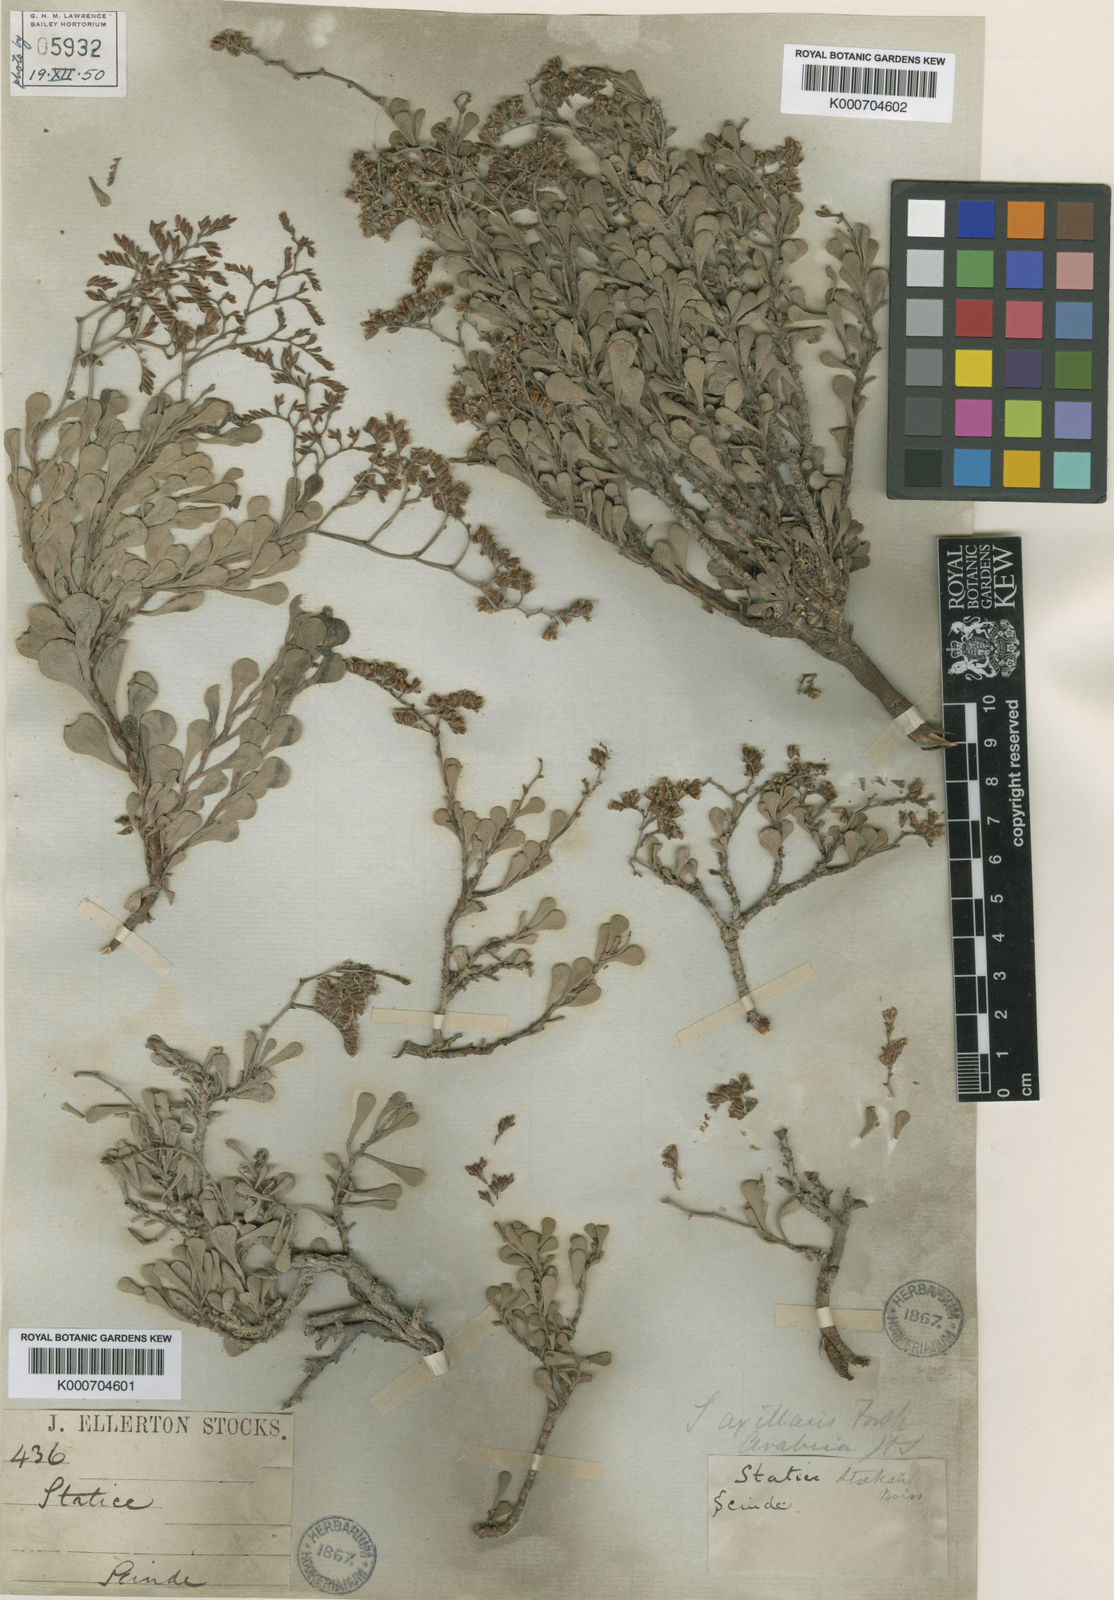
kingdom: Plantae
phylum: Tracheophyta
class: Magnoliopsida
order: Caryophyllales
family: Plumbaginaceae
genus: Limonium
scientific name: Limonium stocksii
